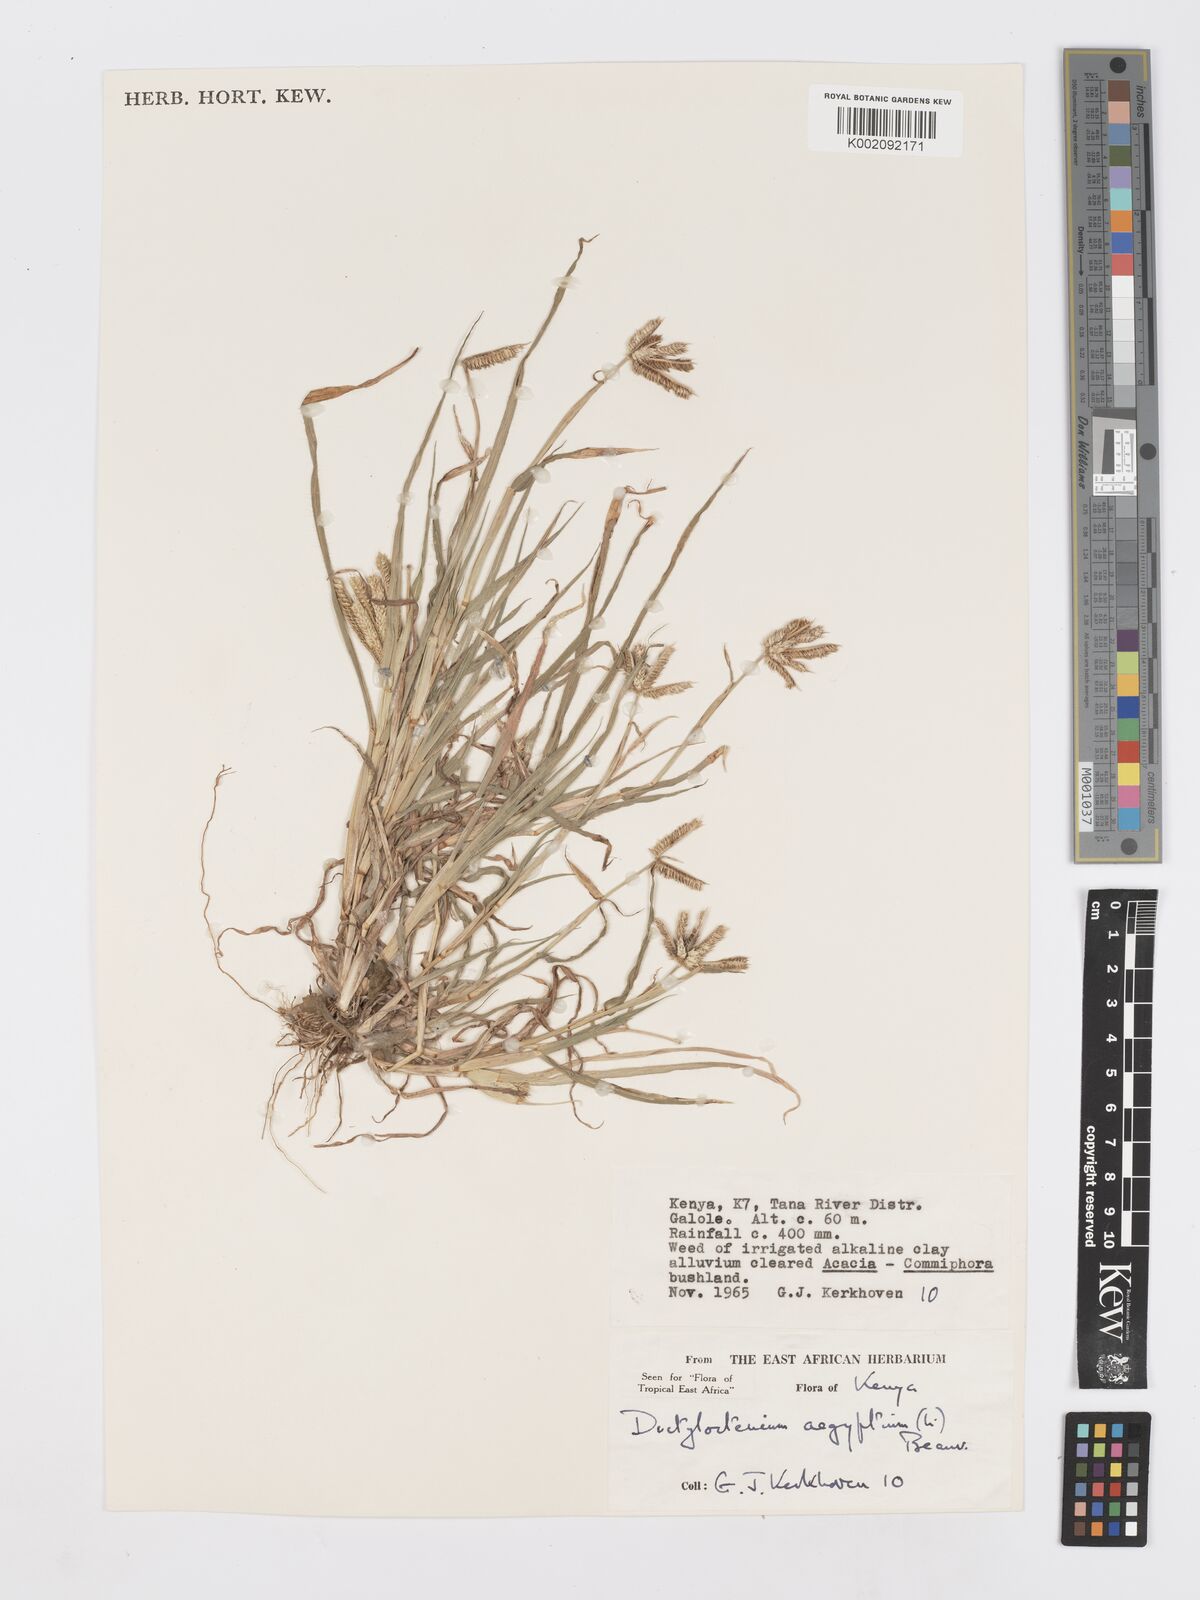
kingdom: Plantae
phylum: Tracheophyta
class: Liliopsida
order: Poales
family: Poaceae
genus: Dactyloctenium
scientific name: Dactyloctenium aegyptium
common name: Egyptian grass
